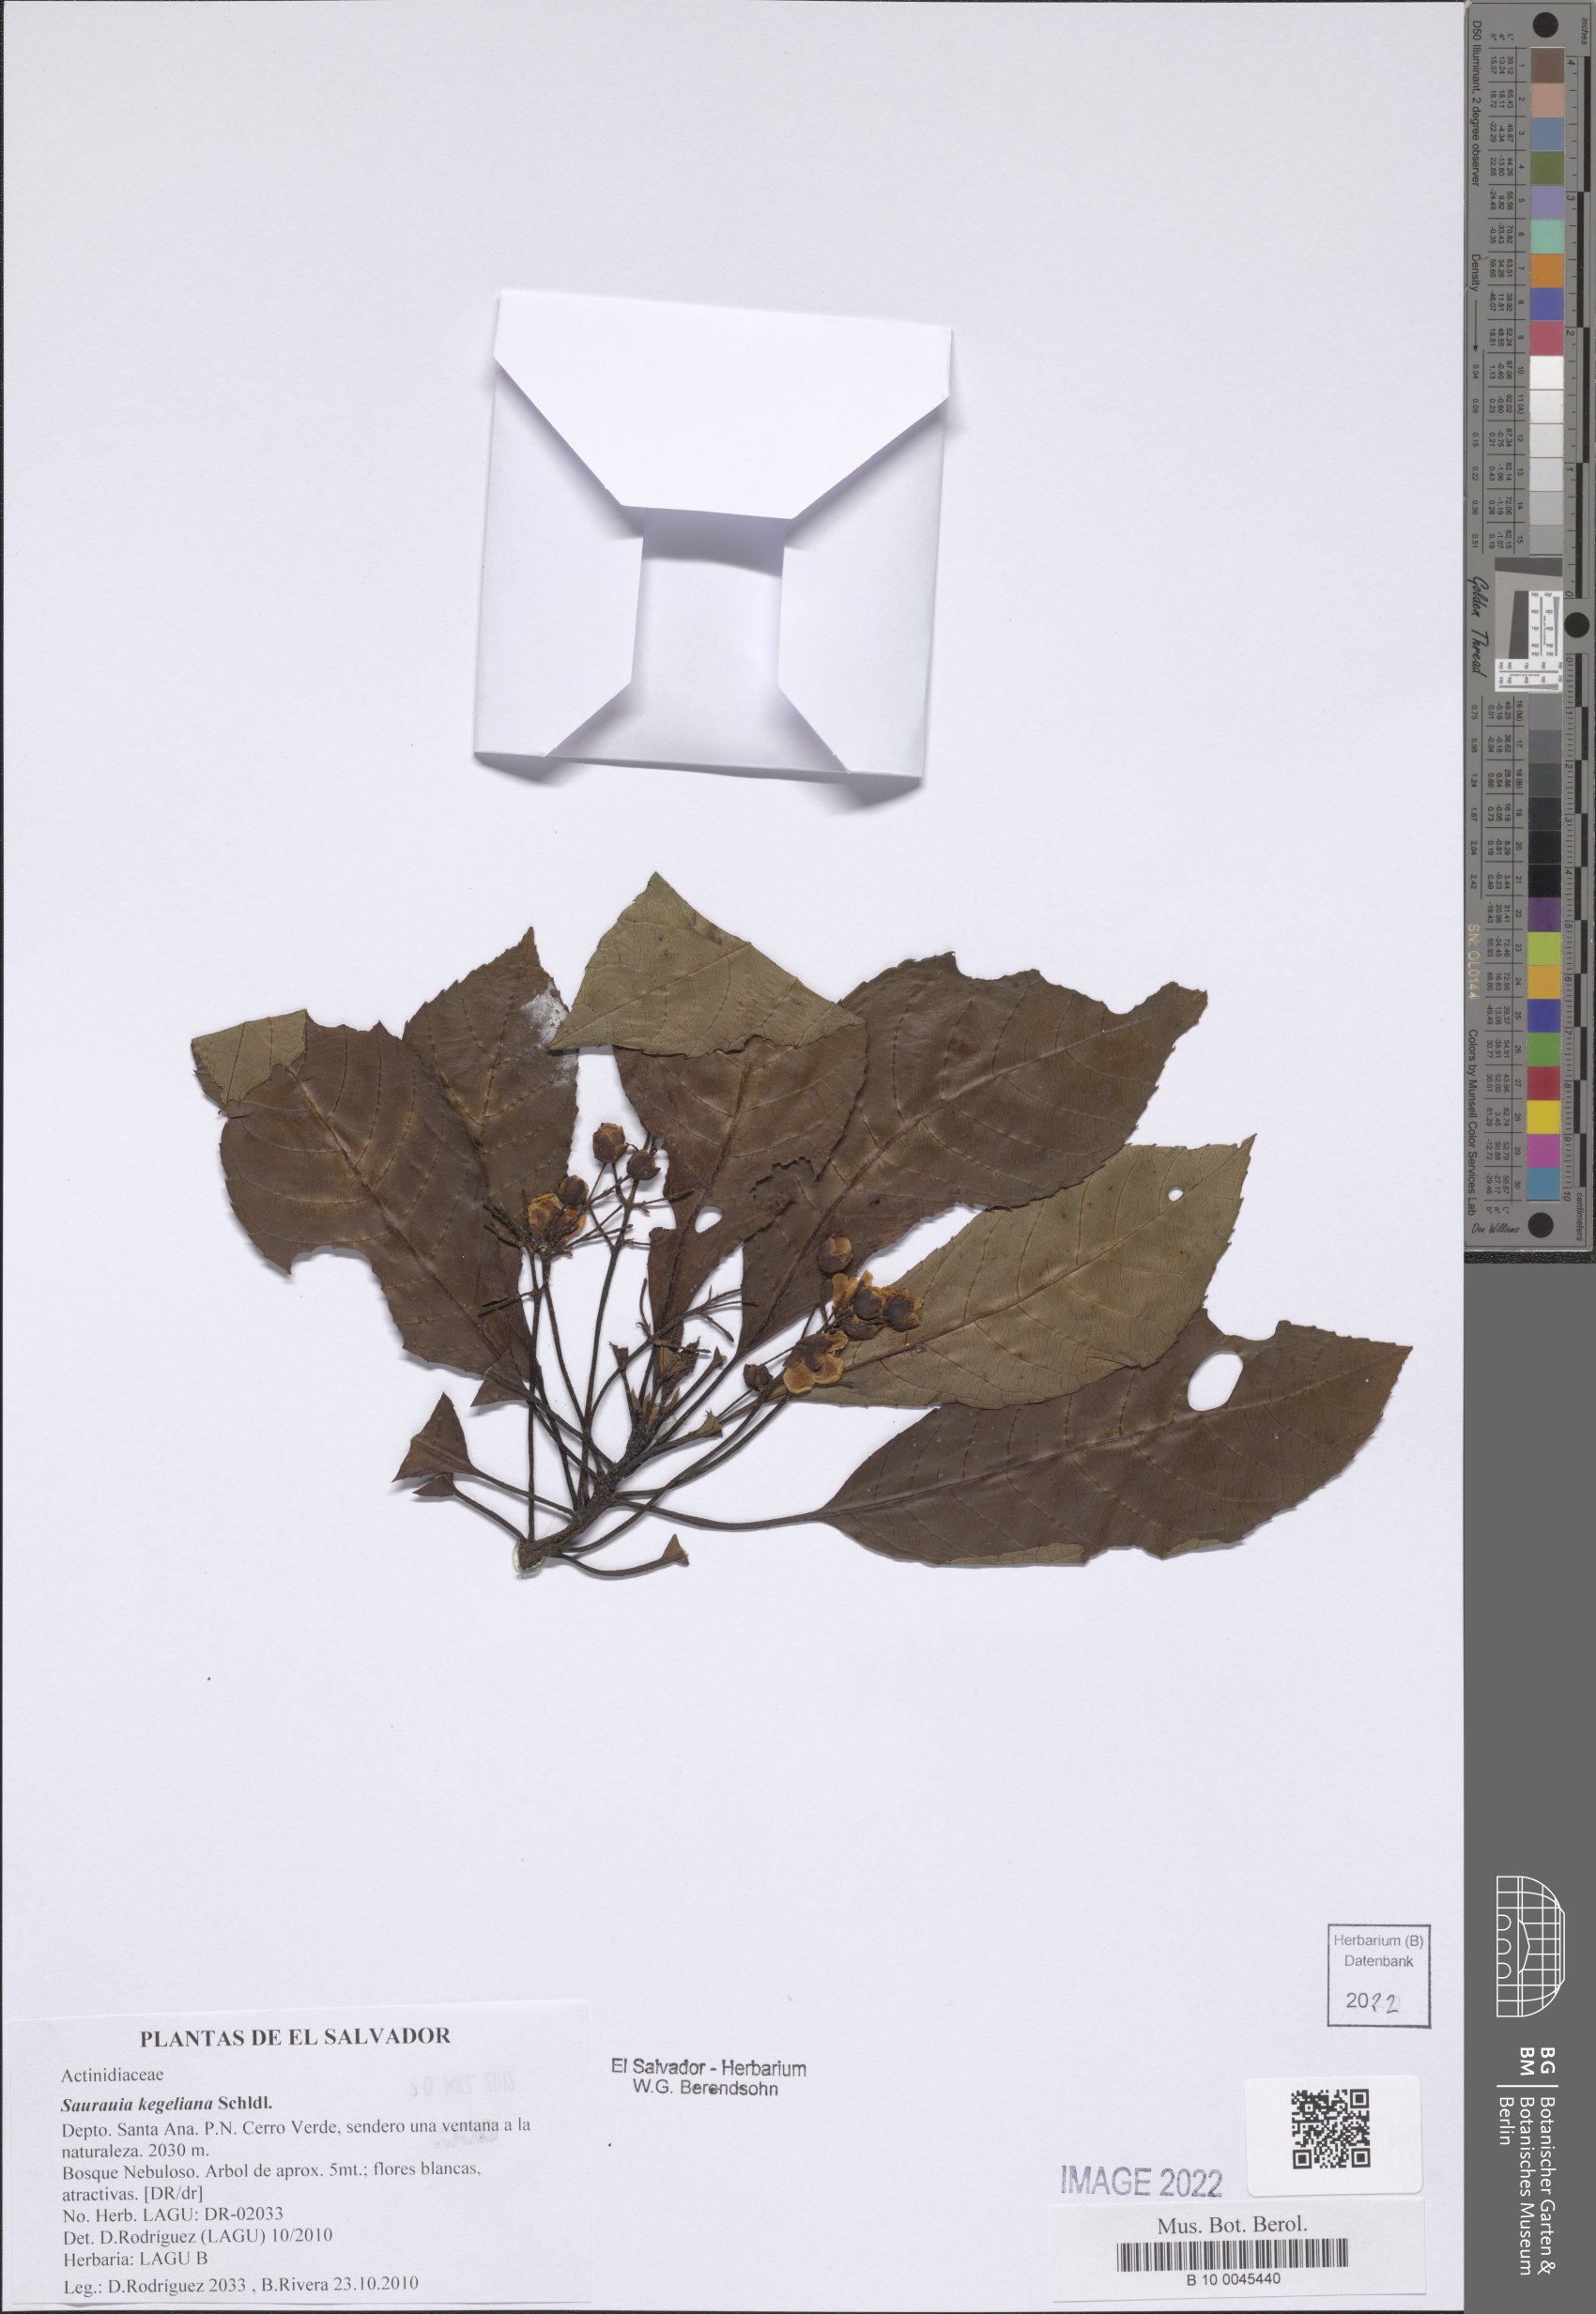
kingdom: Plantae
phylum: Tracheophyta
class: Magnoliopsida
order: Ericales
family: Actinidiaceae
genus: Saurauia
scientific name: Saurauia kegeliana
